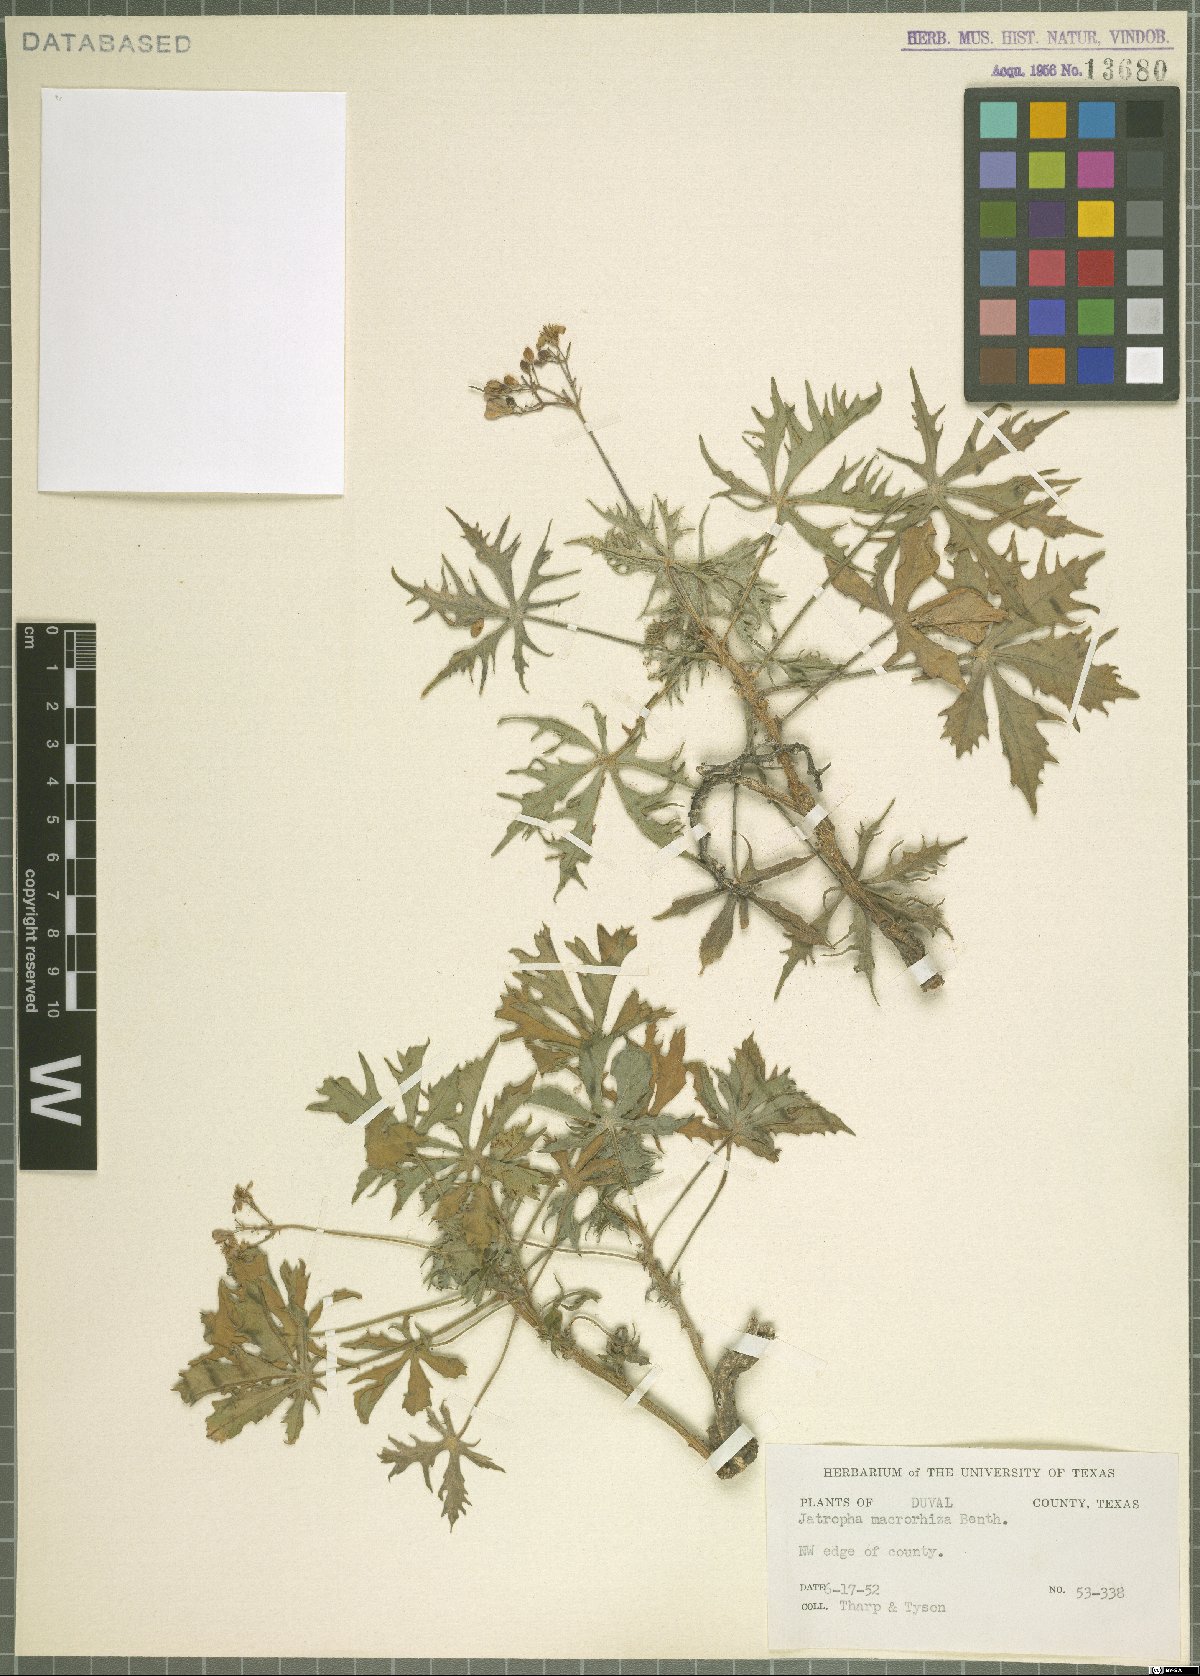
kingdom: Plantae
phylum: Tracheophyta
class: Magnoliopsida
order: Malpighiales
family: Euphorbiaceae
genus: Jatropha
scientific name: Jatropha macrorhiza
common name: Ragged nettlespurge
